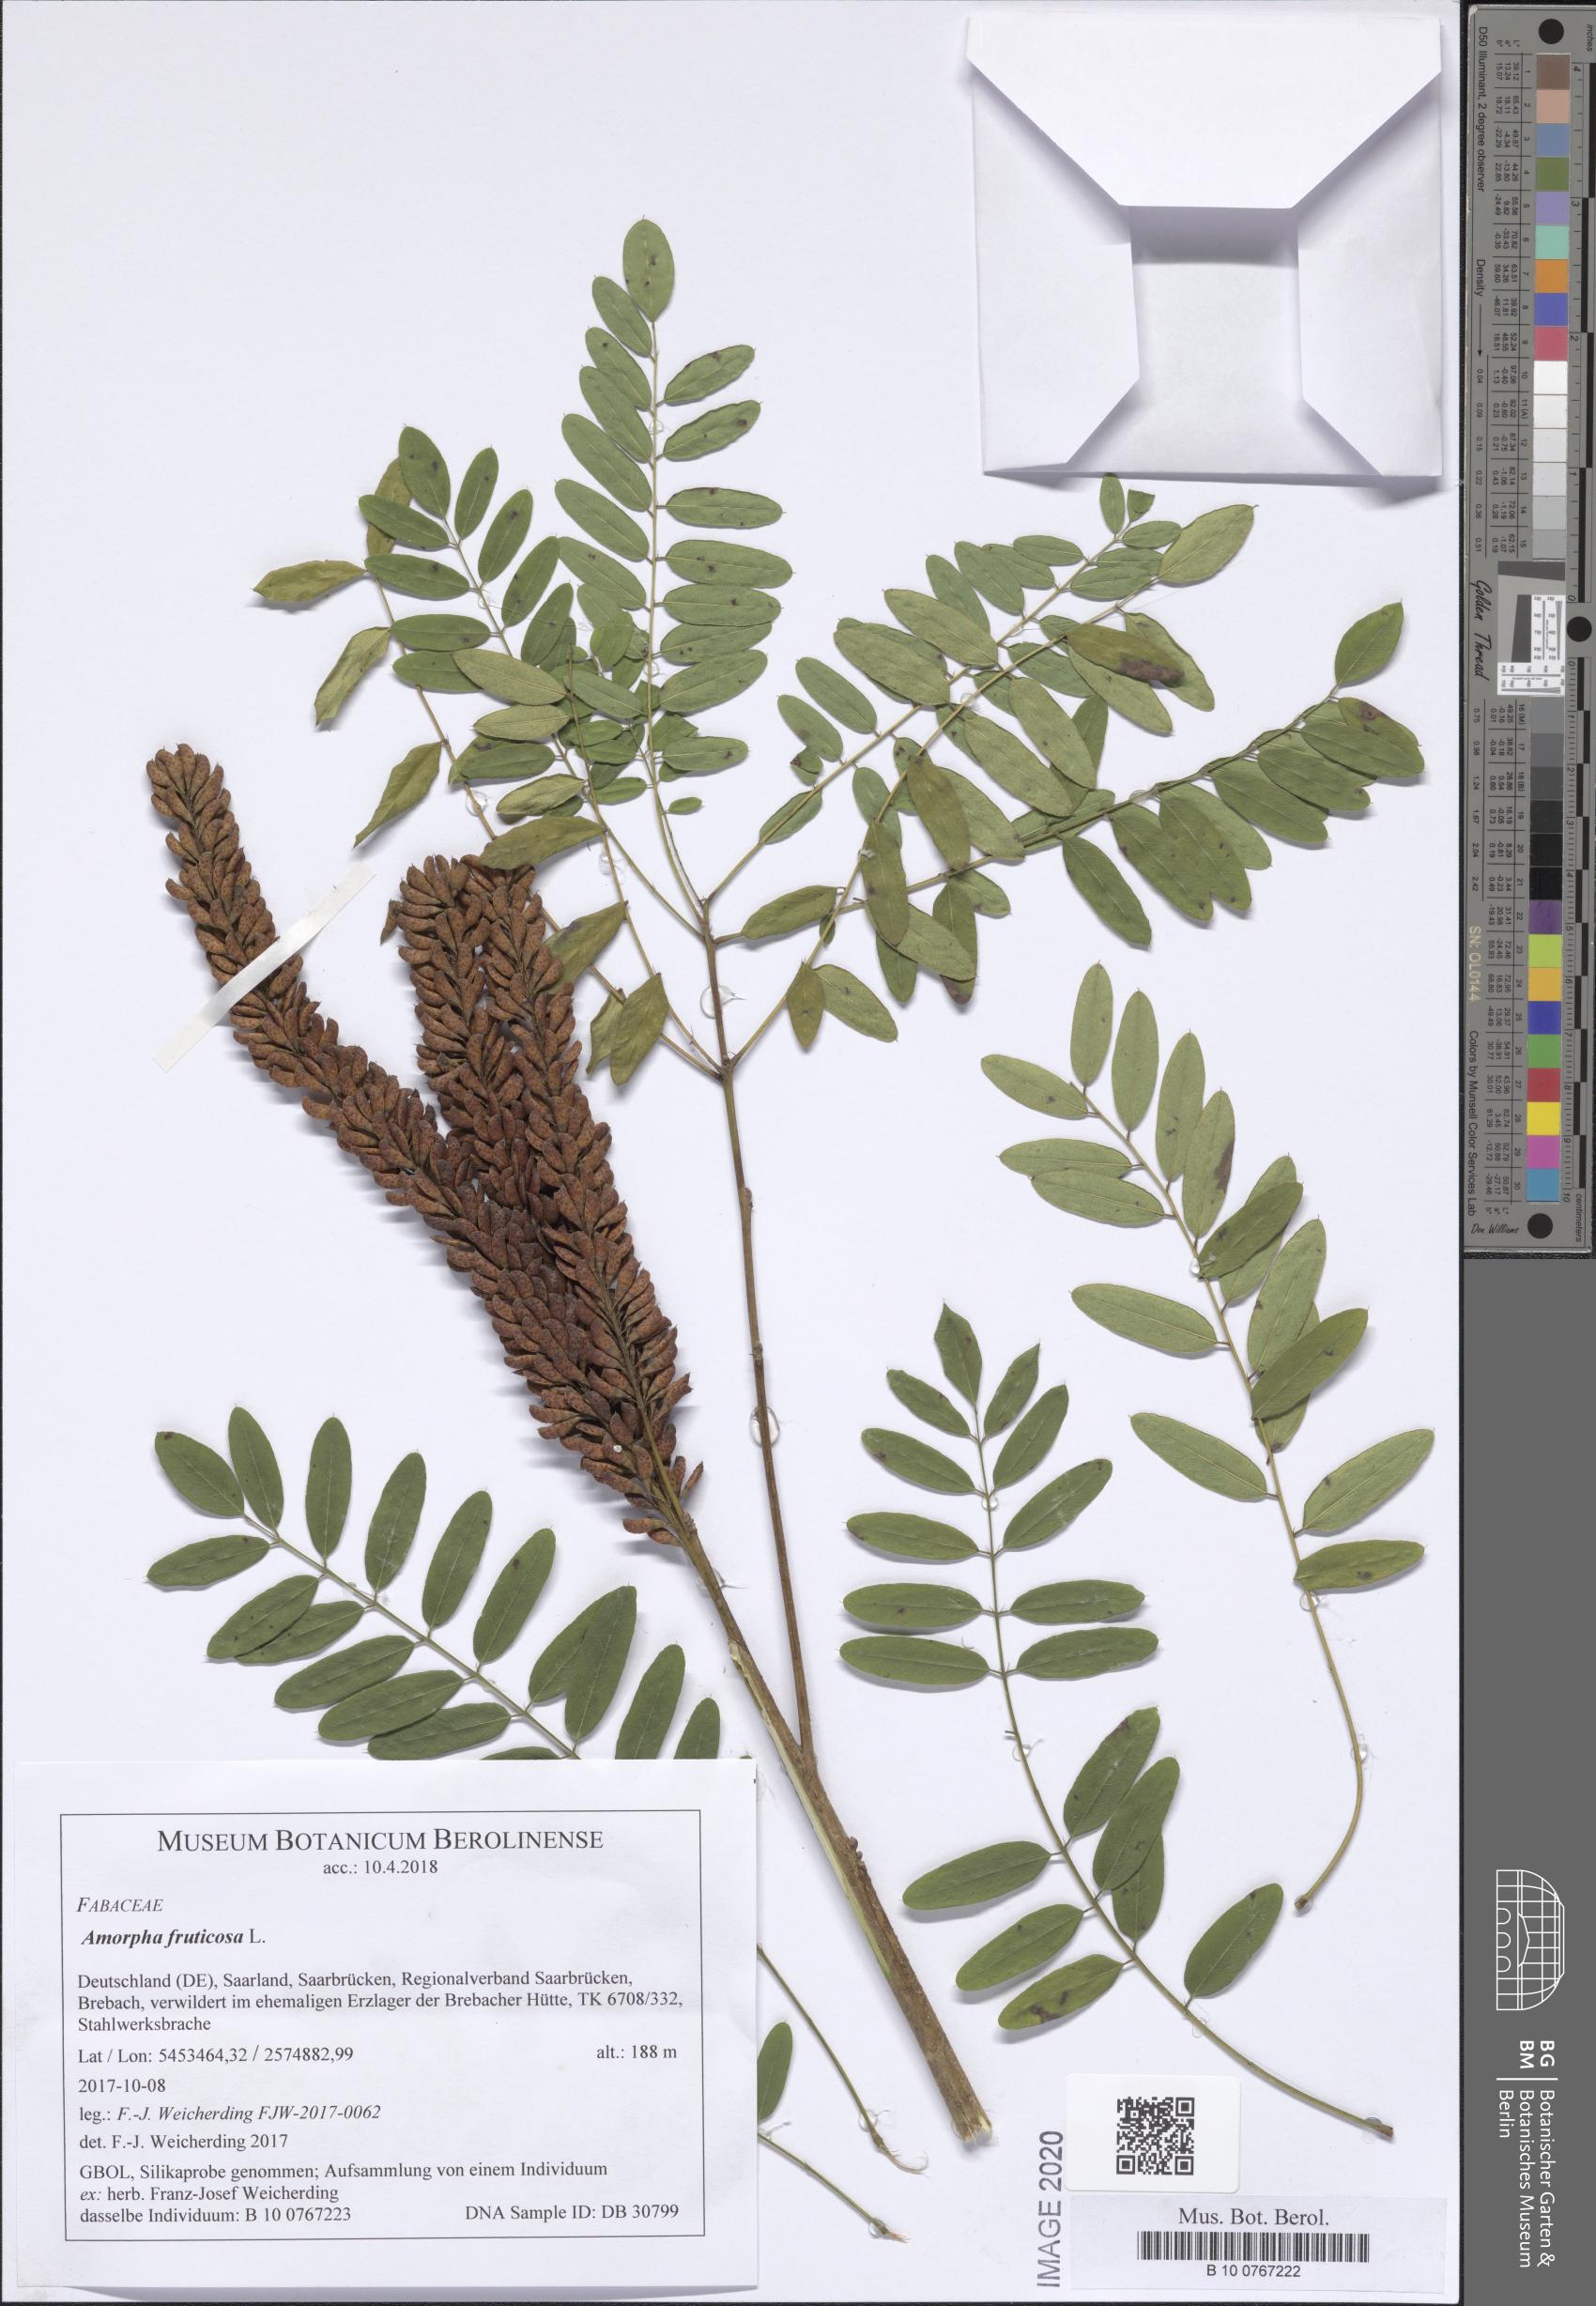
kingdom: Plantae
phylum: Tracheophyta
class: Magnoliopsida
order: Fabales
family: Fabaceae
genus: Amorpha
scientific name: Amorpha fruticosa
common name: False indigo
